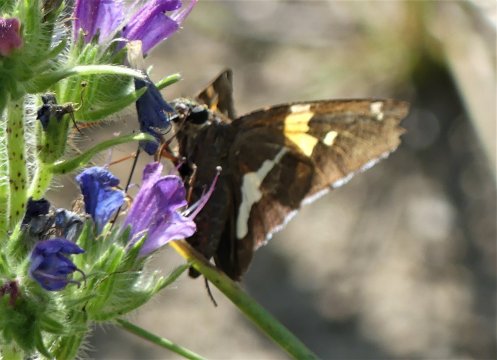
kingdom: Animalia
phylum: Arthropoda
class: Insecta
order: Lepidoptera
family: Hesperiidae
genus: Epargyreus
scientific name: Epargyreus clarus
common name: Silver-spotted Skipper
